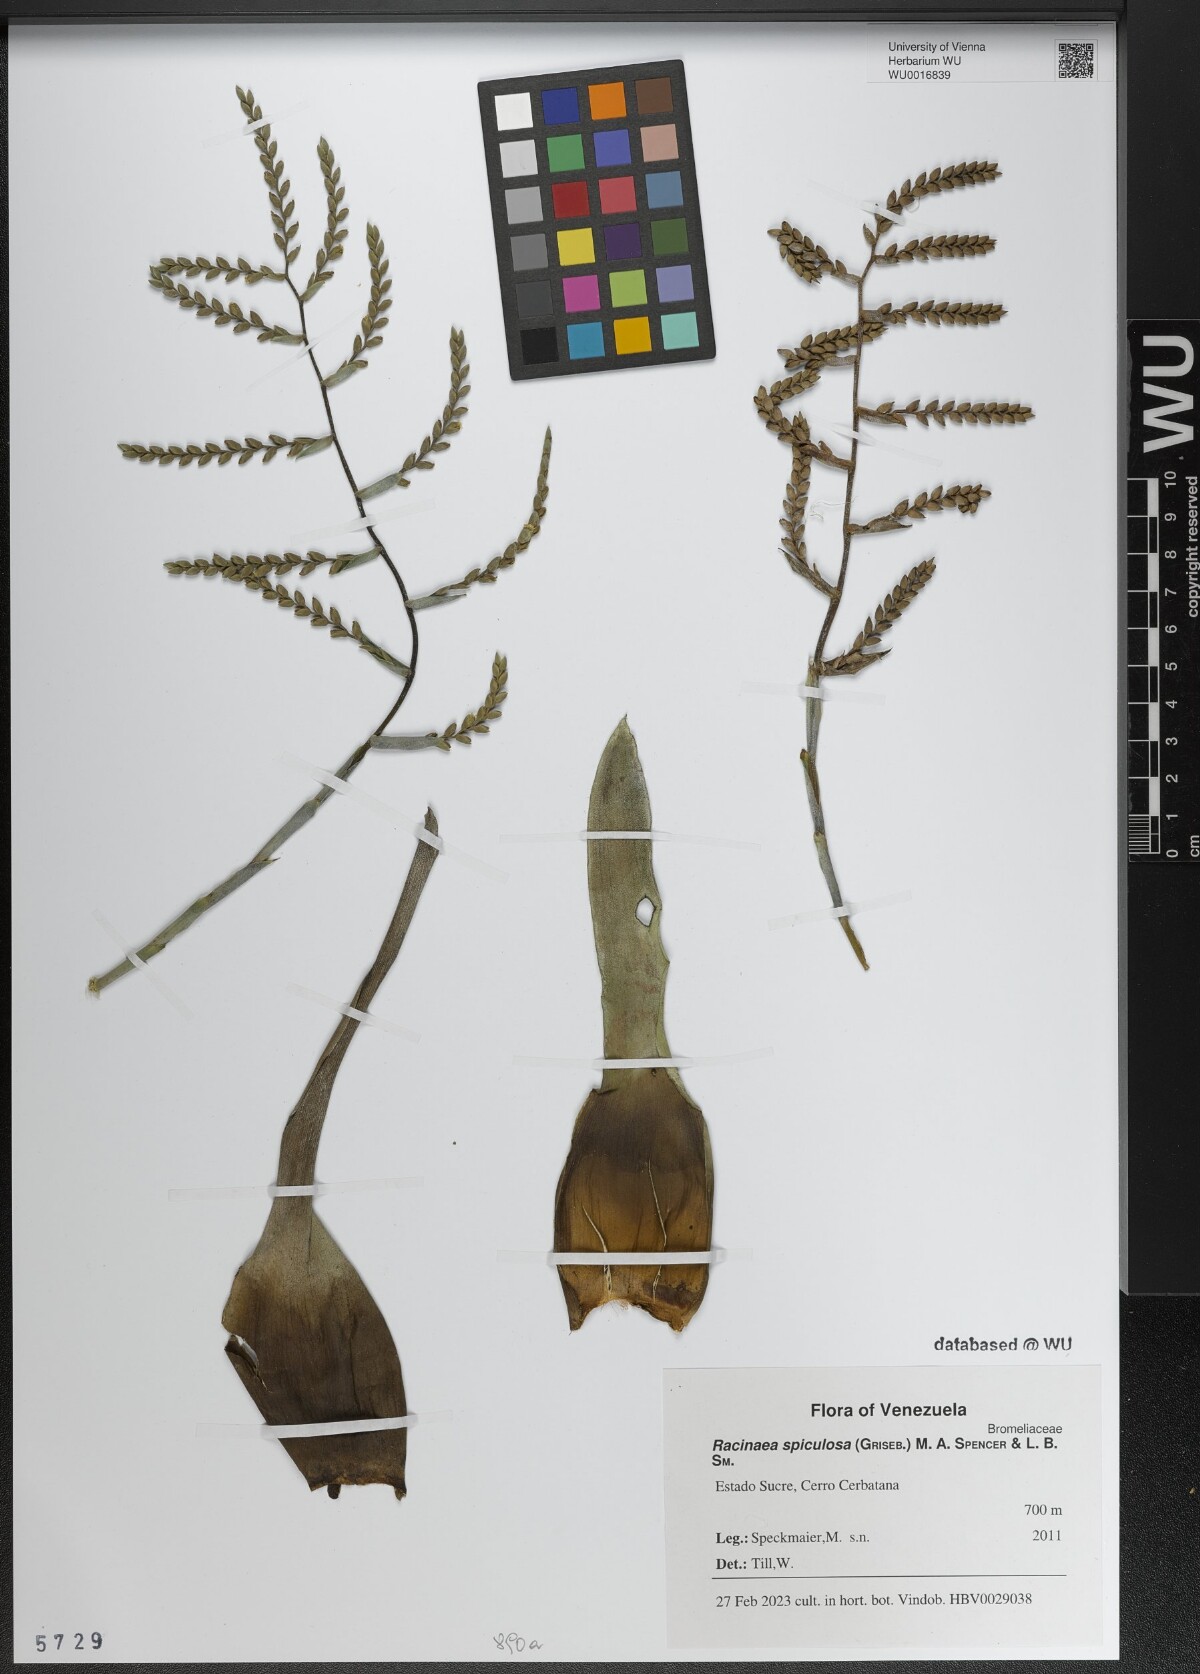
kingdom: Plantae
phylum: Tracheophyta
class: Liliopsida
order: Poales
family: Bromeliaceae
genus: Racinaea
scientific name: Racinaea spiculosa
